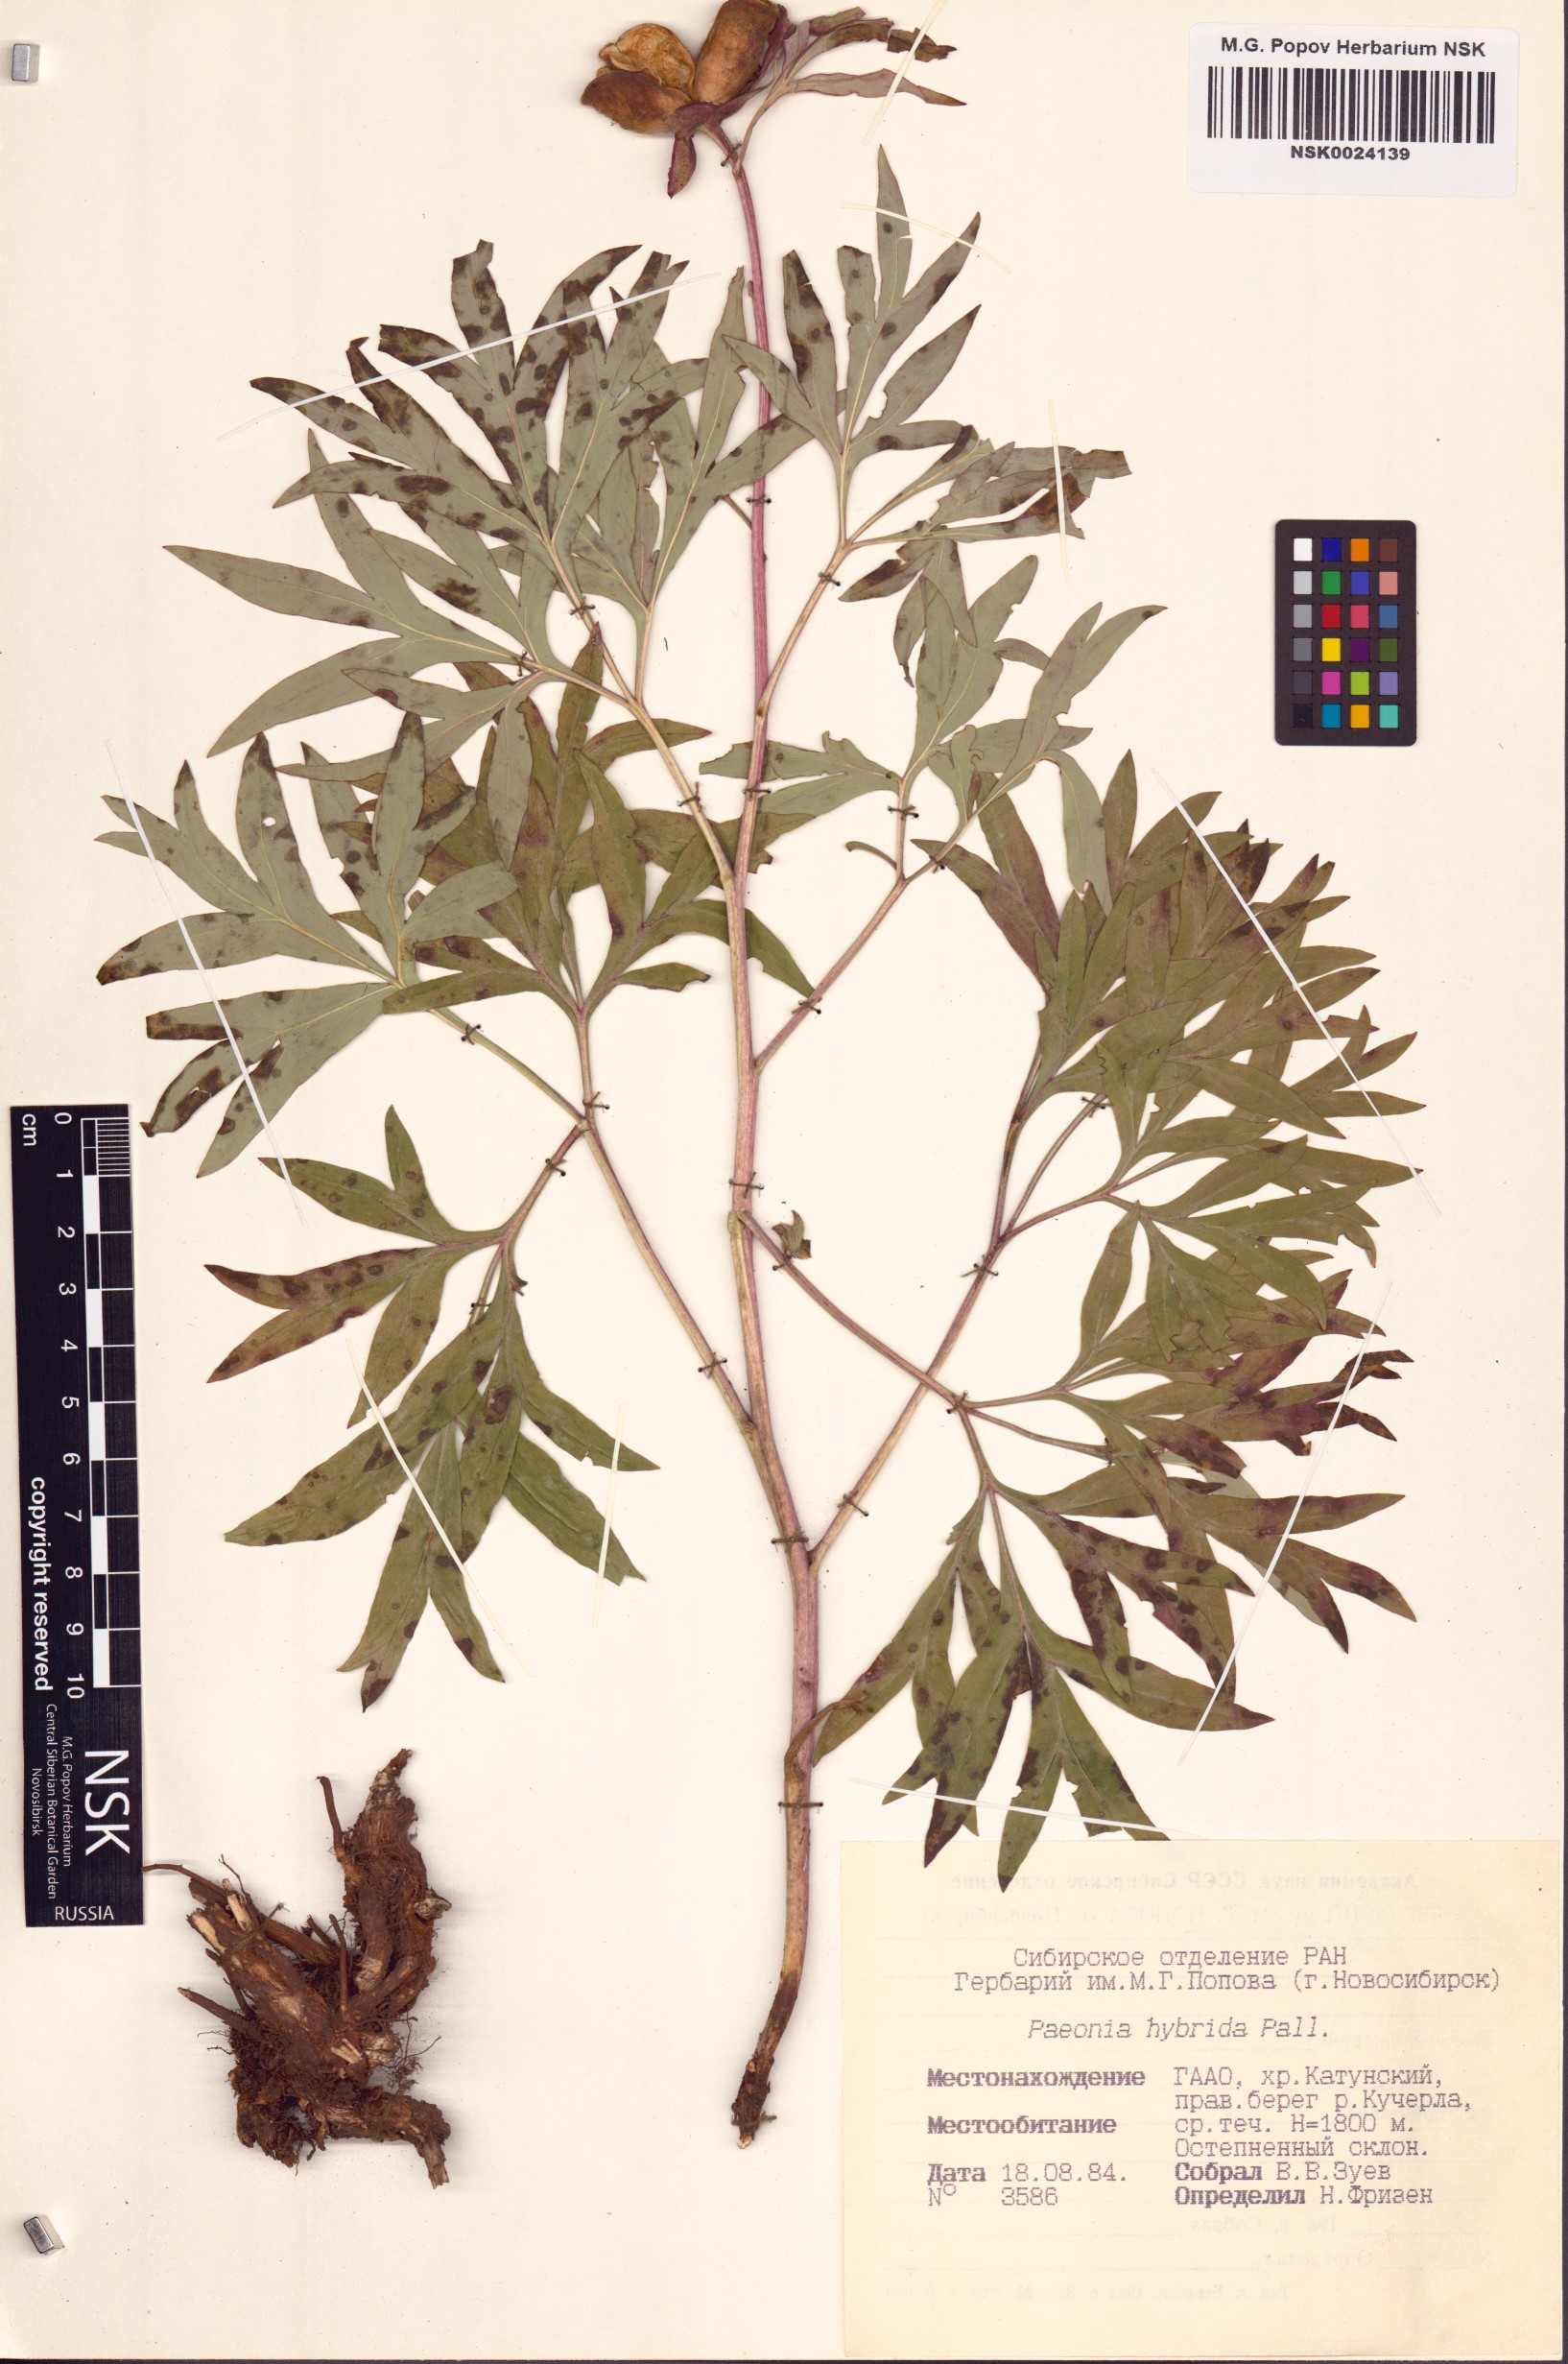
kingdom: Plantae
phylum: Tracheophyta
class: Magnoliopsida
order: Saxifragales
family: Paeoniaceae
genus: Paeonia
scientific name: Paeonia
